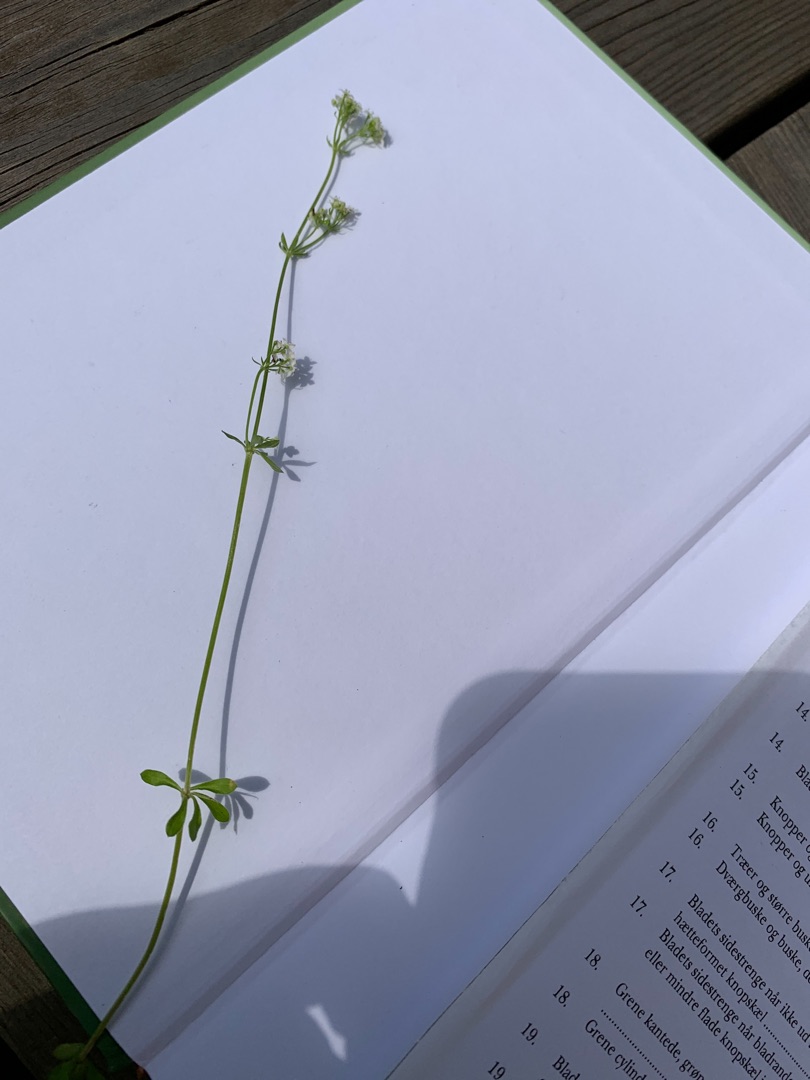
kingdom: Plantae
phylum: Tracheophyta
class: Magnoliopsida
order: Gentianales
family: Rubiaceae
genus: Galium
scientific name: Galium uliginosum
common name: Sump-snerre
